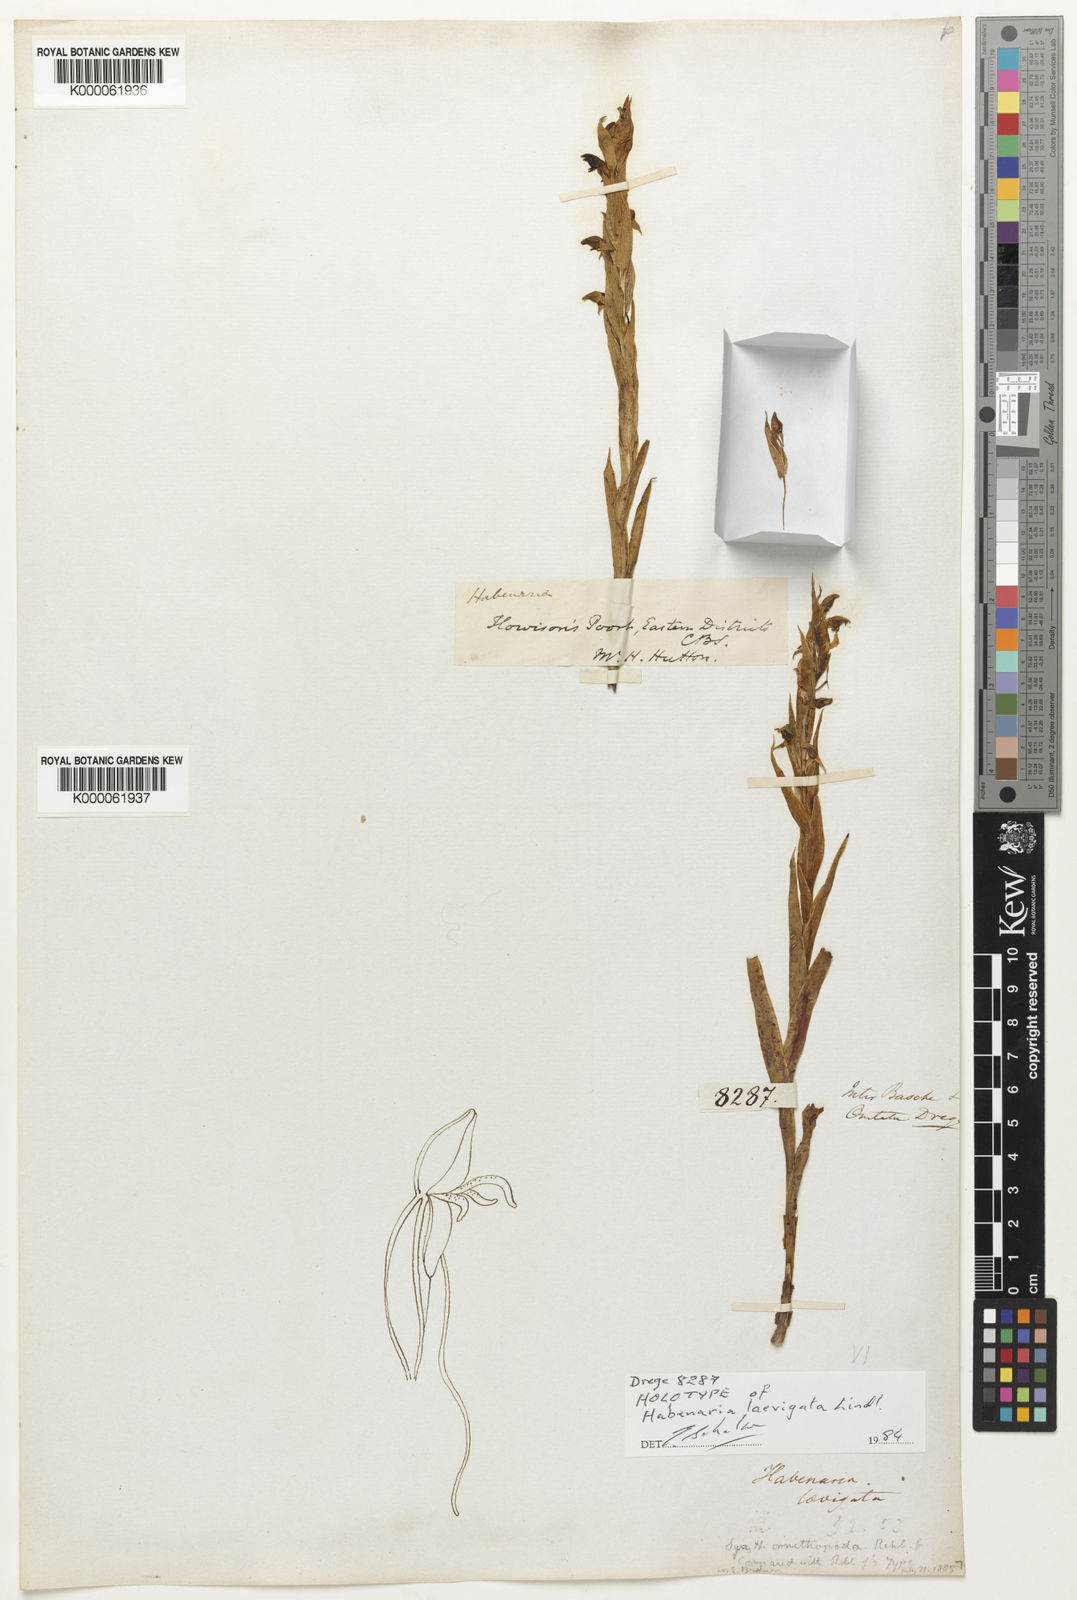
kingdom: Plantae
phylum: Tracheophyta
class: Liliopsida
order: Asparagales
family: Orchidaceae
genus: Habenaria
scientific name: Habenaria laevigata
